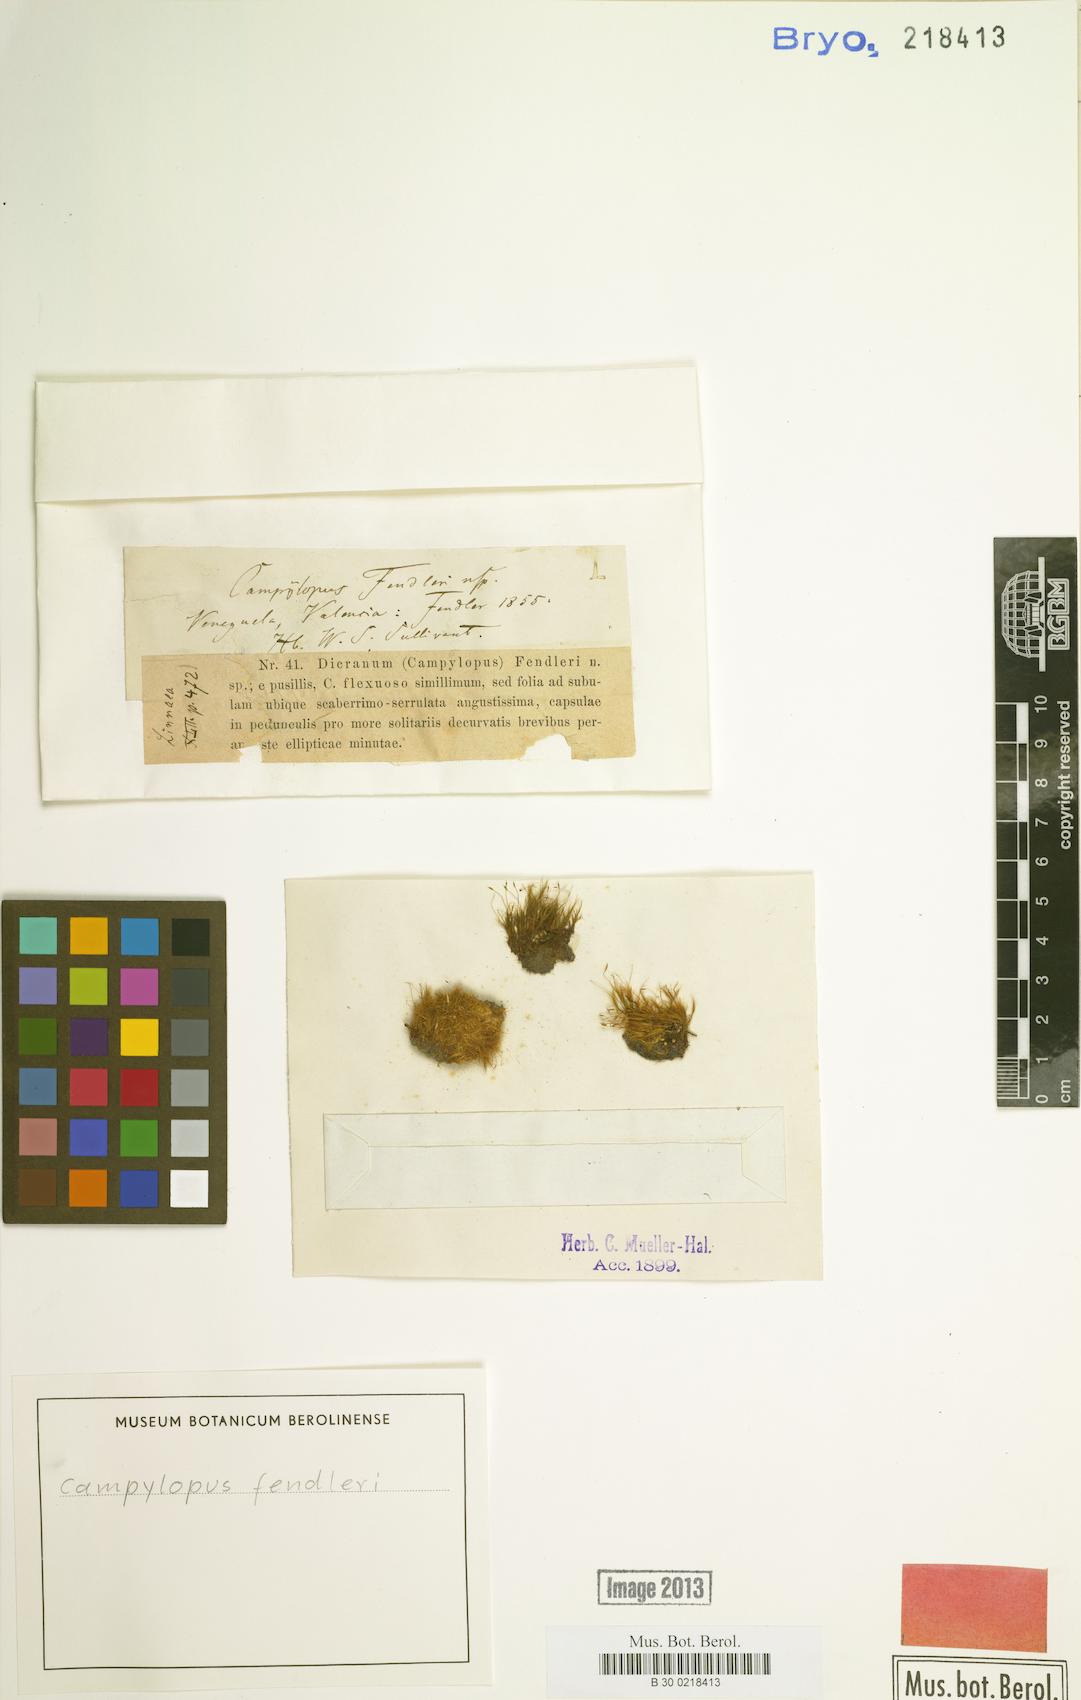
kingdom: Plantae
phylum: Bryophyta
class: Bryopsida
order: Dicranales
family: Leucobryaceae
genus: Campylopus
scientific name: Campylopus pauper
